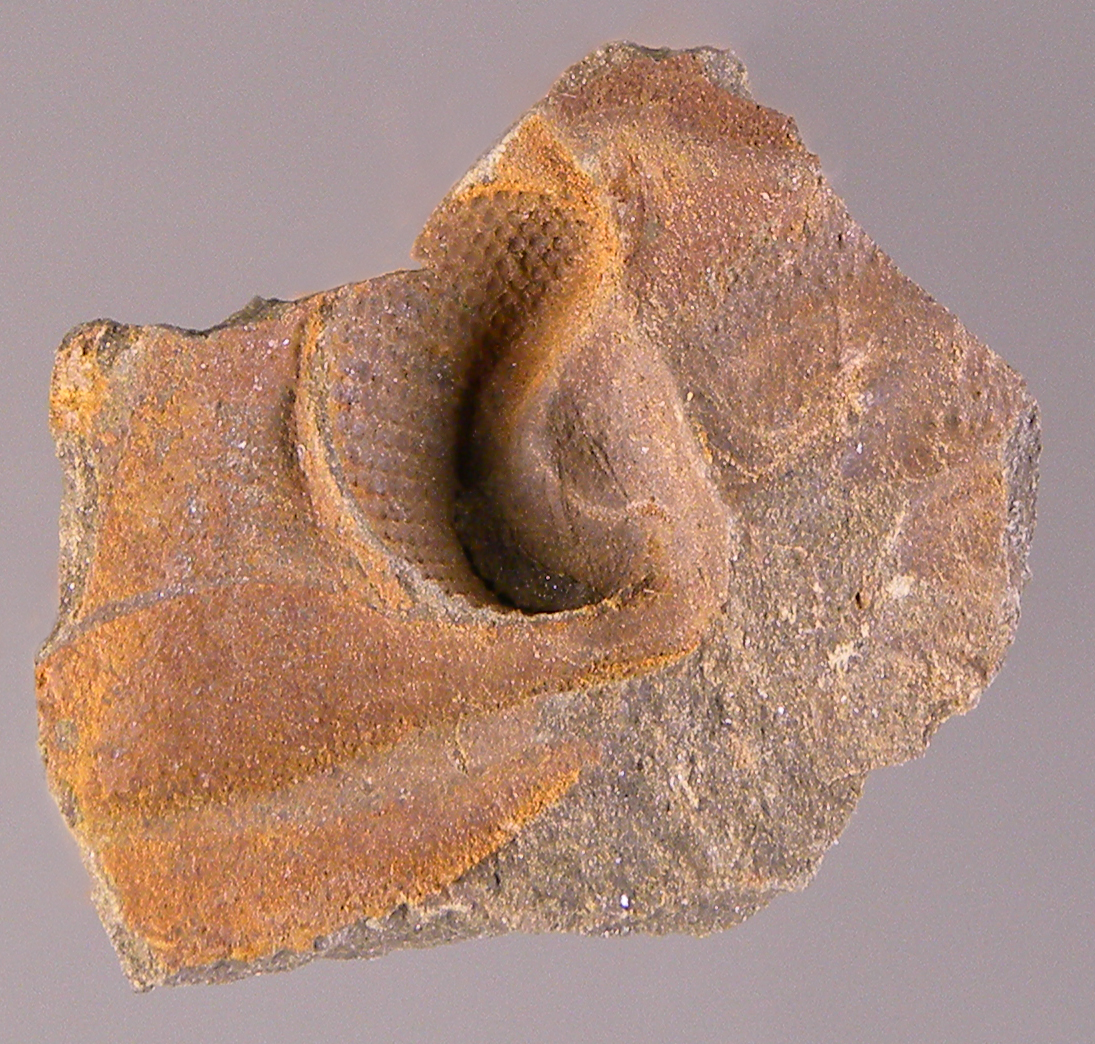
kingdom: Animalia
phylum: Arthropoda
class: Trilobita
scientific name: Trilobita
